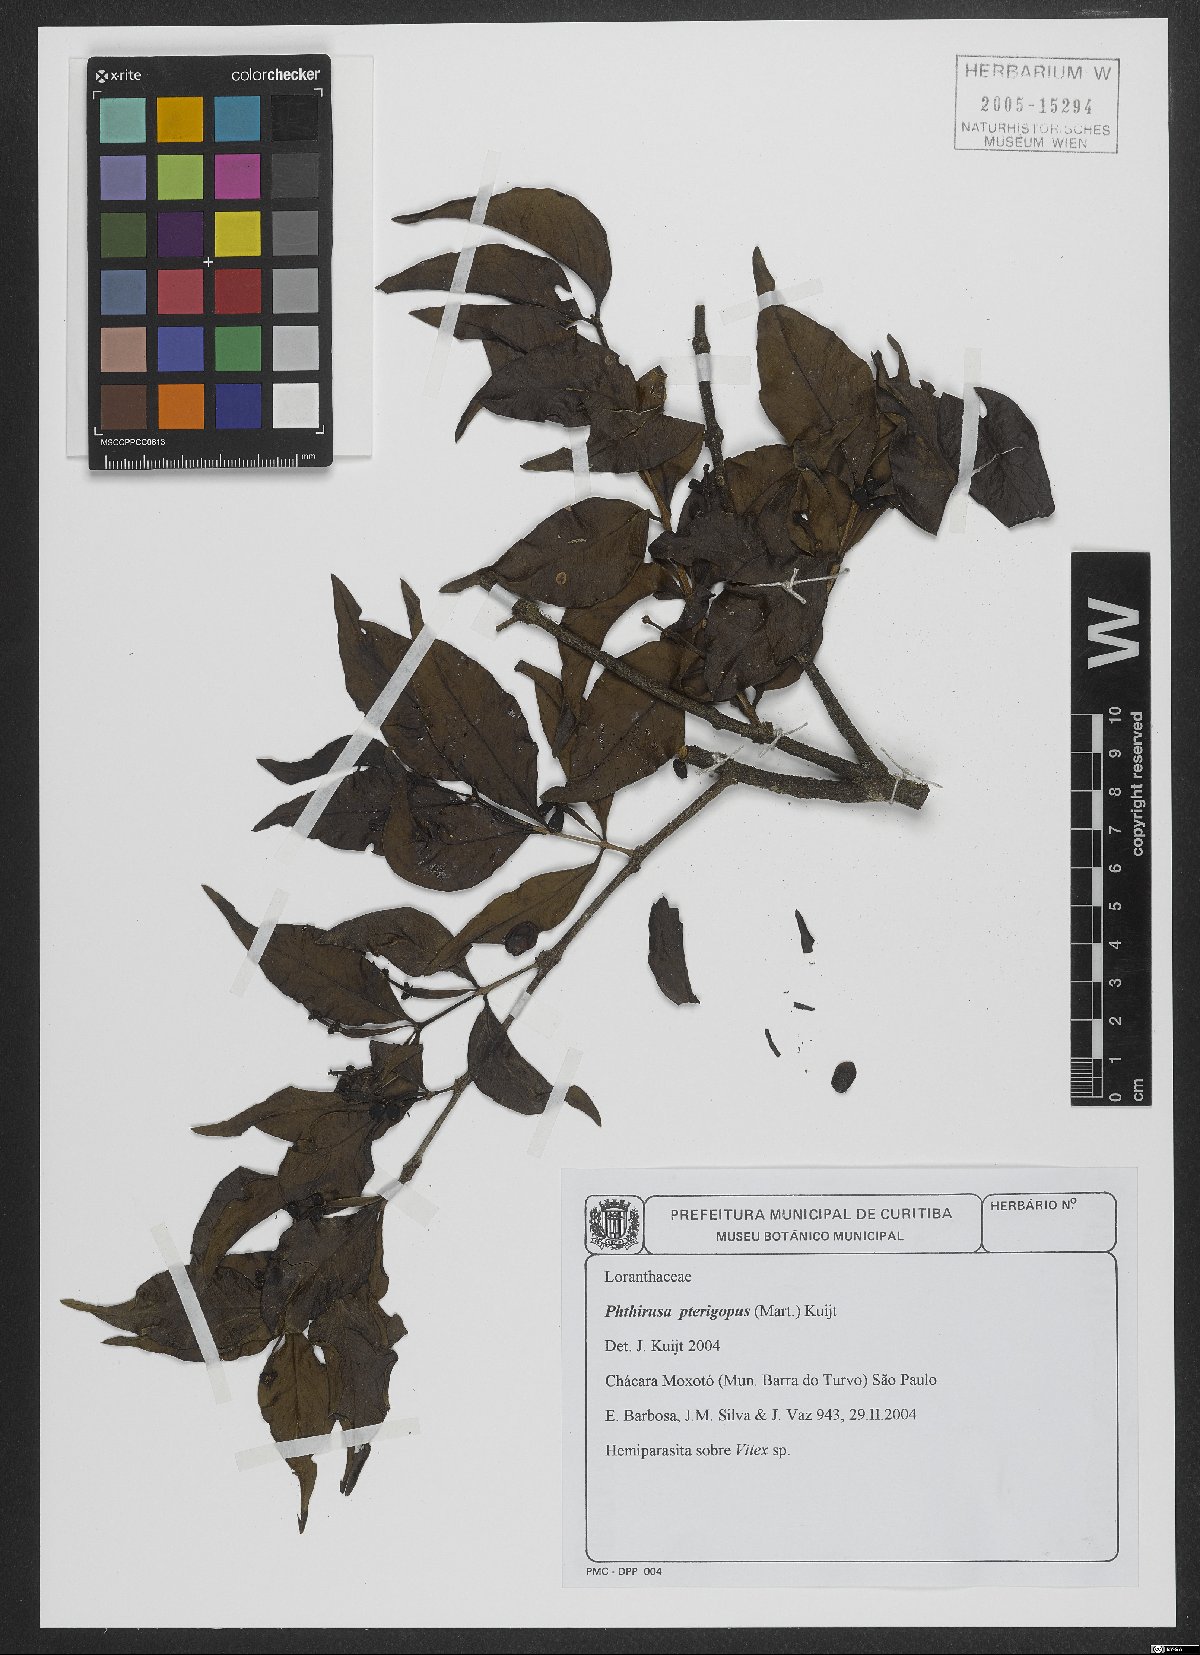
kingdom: Plantae
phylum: Tracheophyta
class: Magnoliopsida
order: Santalales
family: Loranthaceae
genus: Passovia
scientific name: Passovia podoptera
